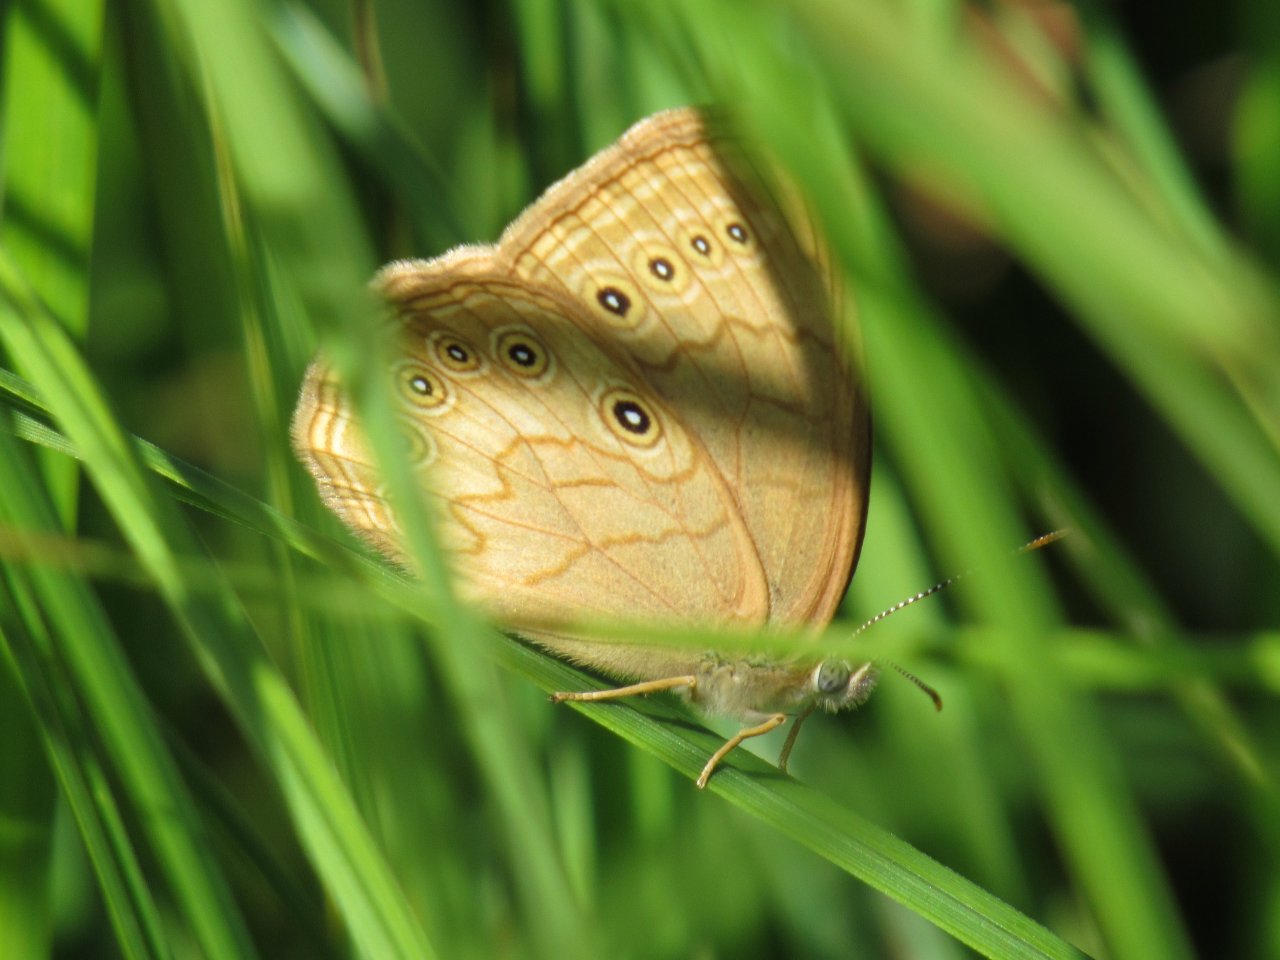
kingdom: Animalia
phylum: Arthropoda
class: Insecta
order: Lepidoptera
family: Nymphalidae
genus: Lethe
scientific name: Lethe eurydice
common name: Eyed Brown
